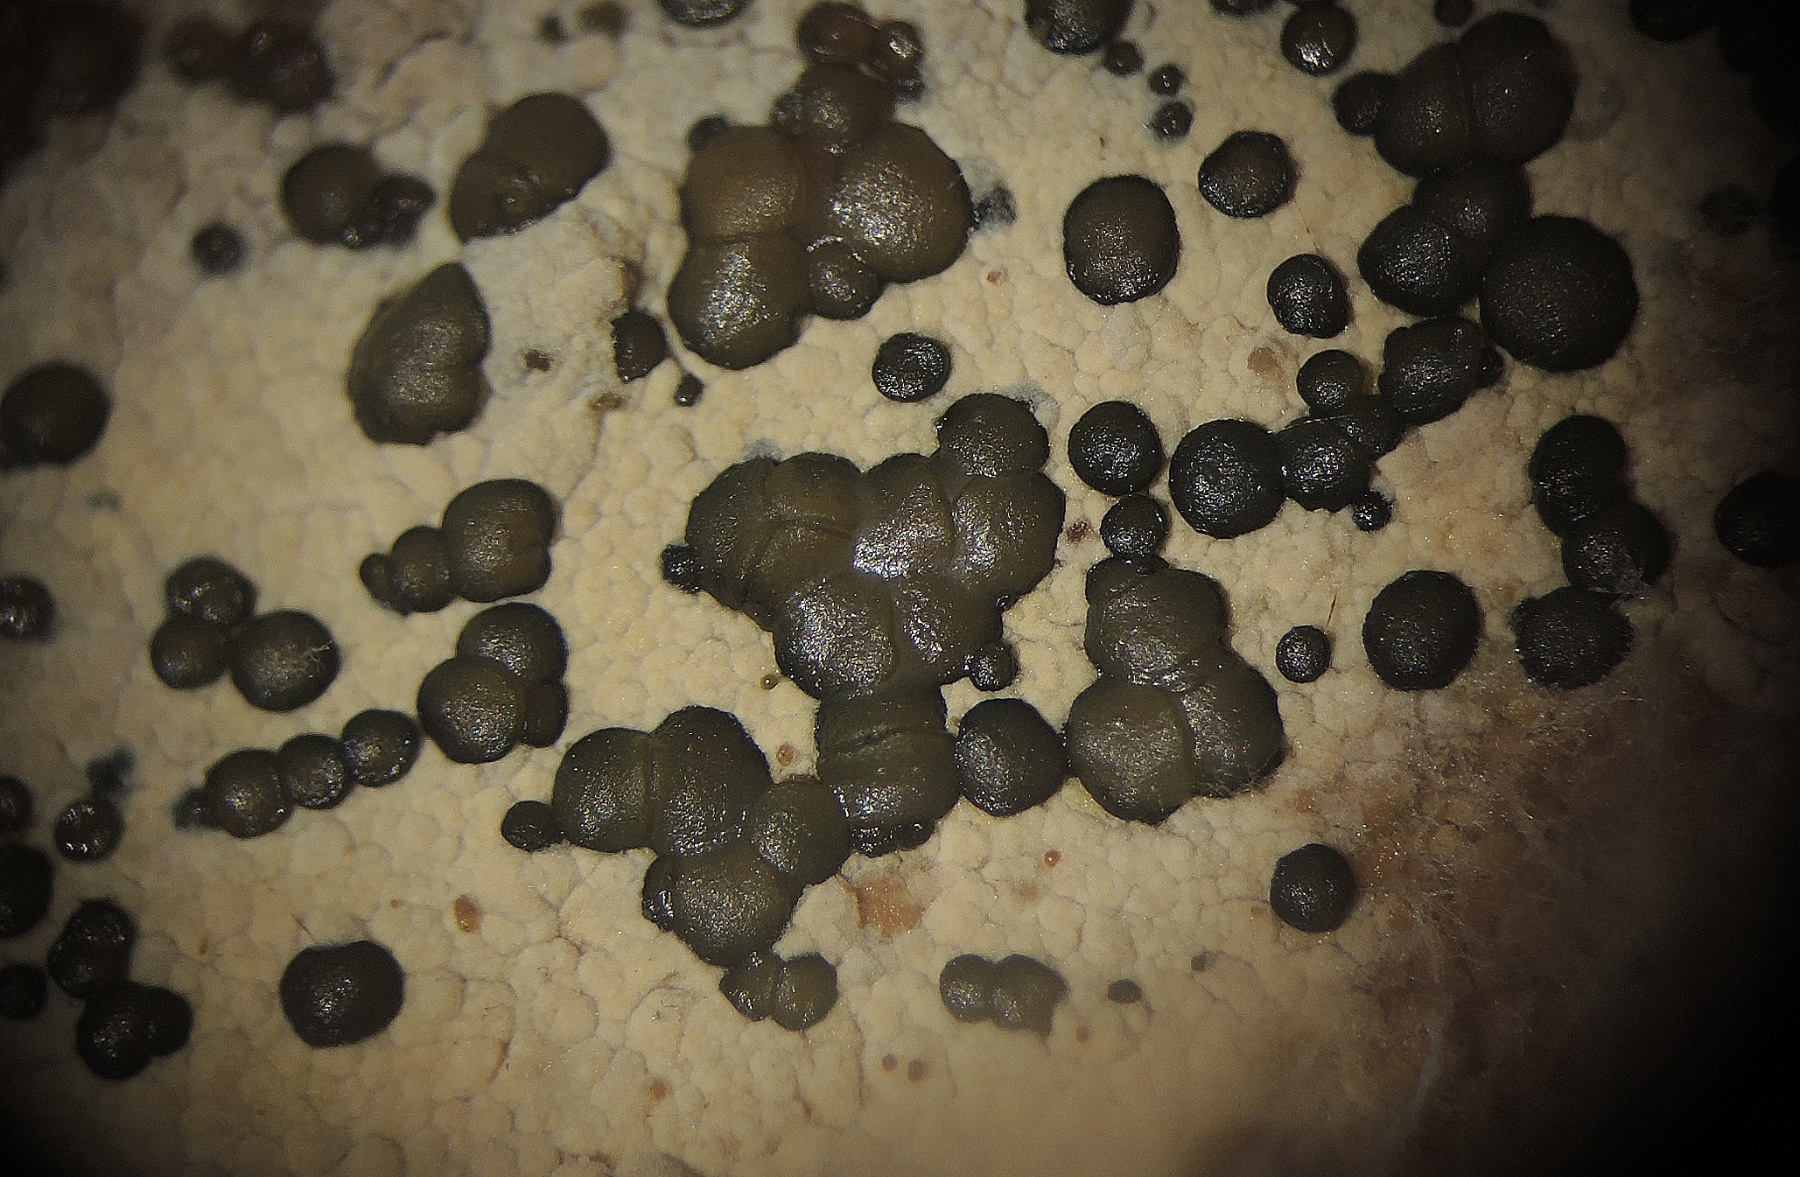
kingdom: Fungi
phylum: Ascomycota
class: Leotiomycetes
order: Leotiales
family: Tympanidaceae
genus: Vexillomyces
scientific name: Vexillomyces atrovirens
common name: sortgrøn linseskive
